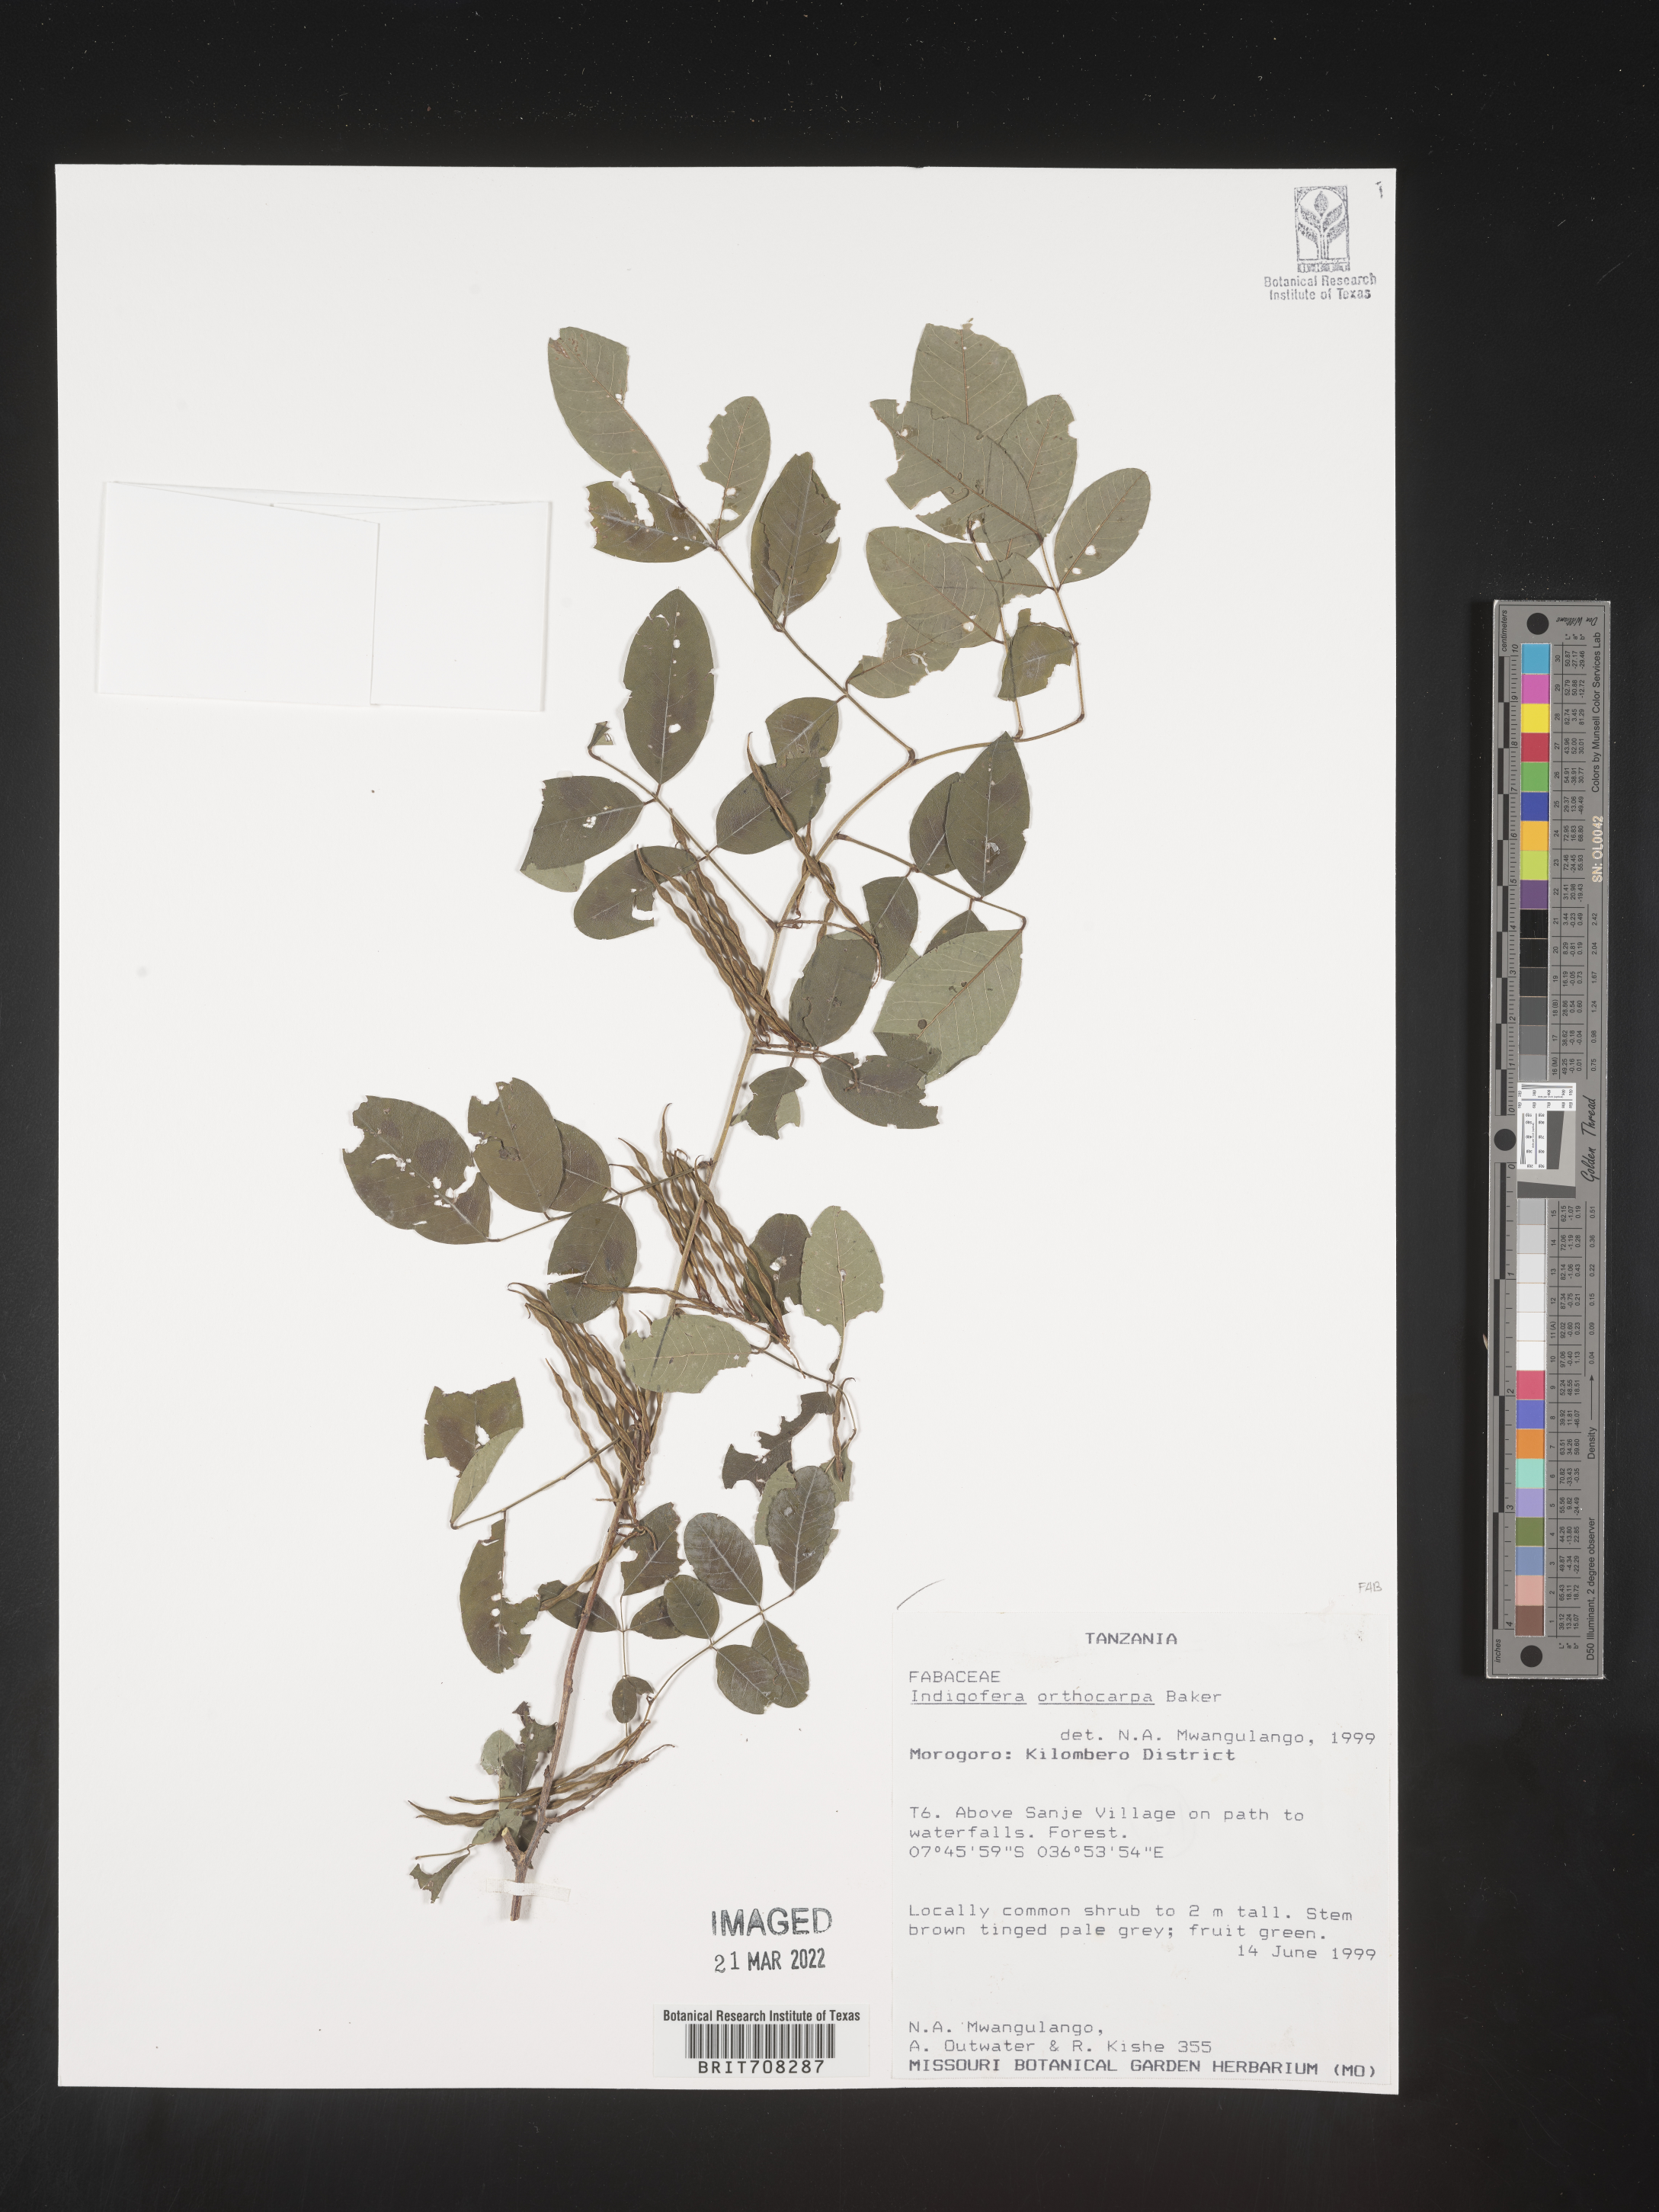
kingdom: Plantae
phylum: Tracheophyta
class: Magnoliopsida
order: Fabales
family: Fabaceae
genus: Indigofera
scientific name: Indigofera
